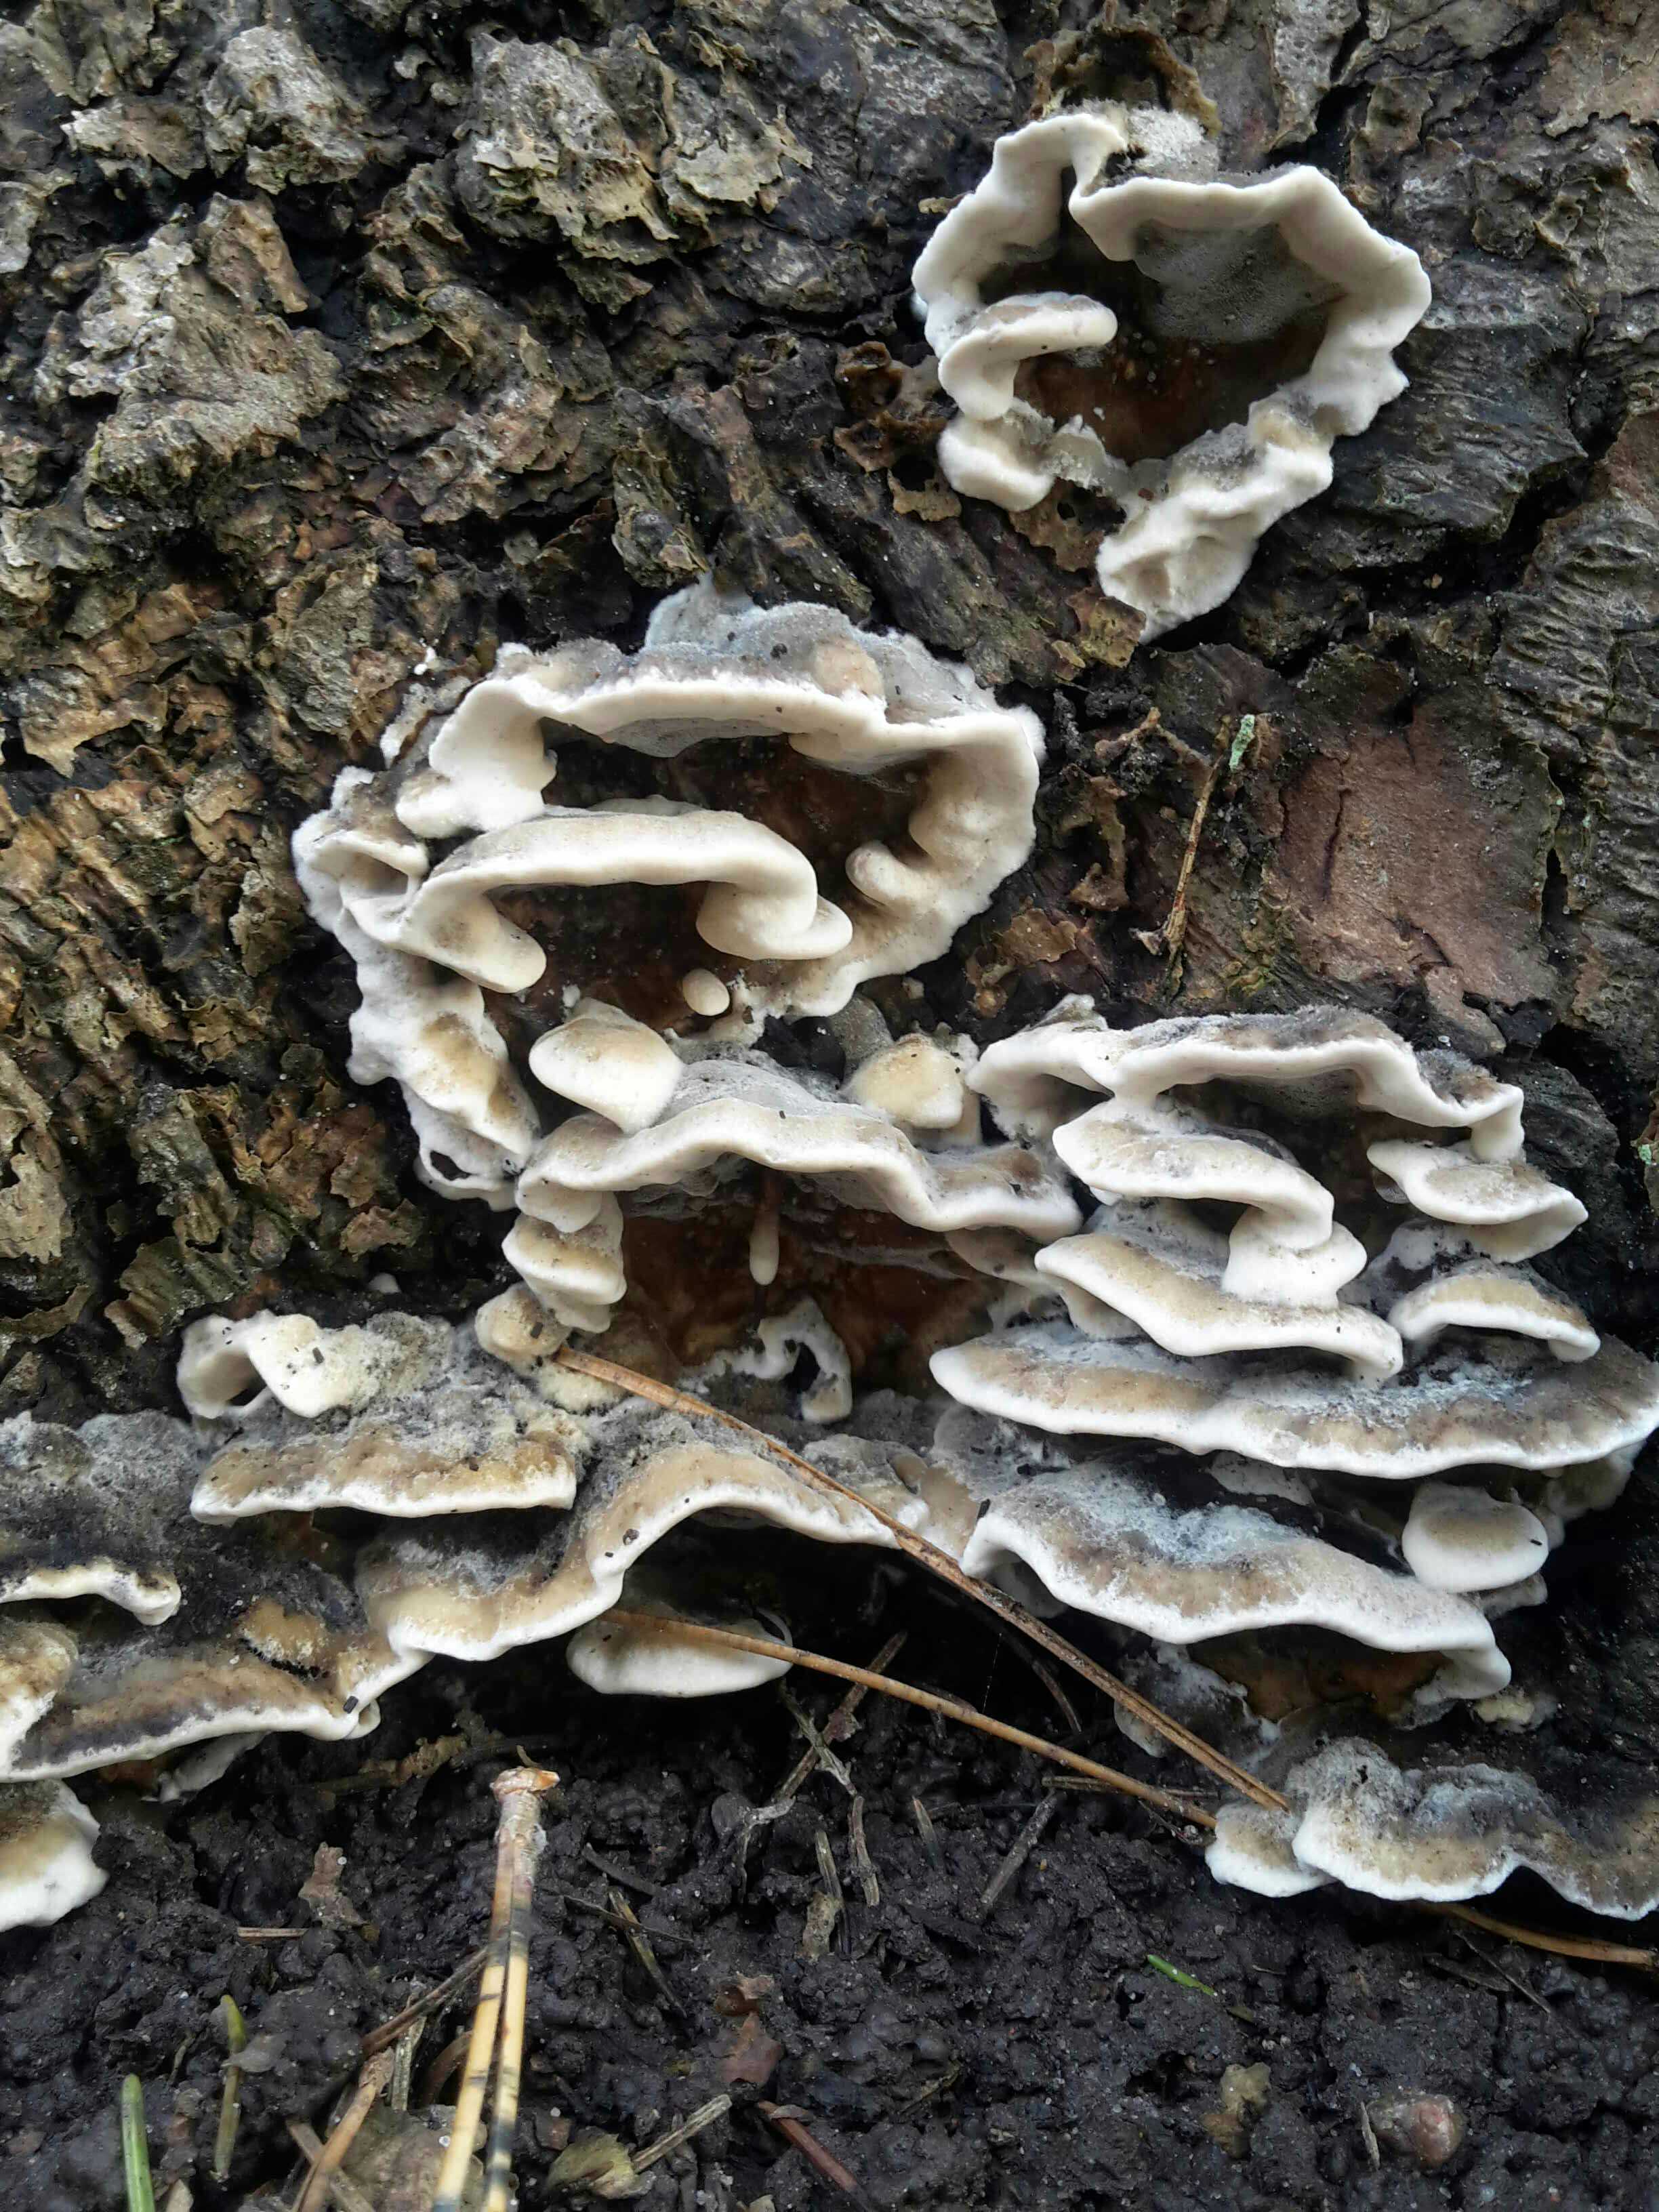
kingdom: Fungi
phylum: Basidiomycota
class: Agaricomycetes
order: Polyporales
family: Phanerochaetaceae
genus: Bjerkandera
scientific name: Bjerkandera adusta
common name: sveden sodporesvamp
